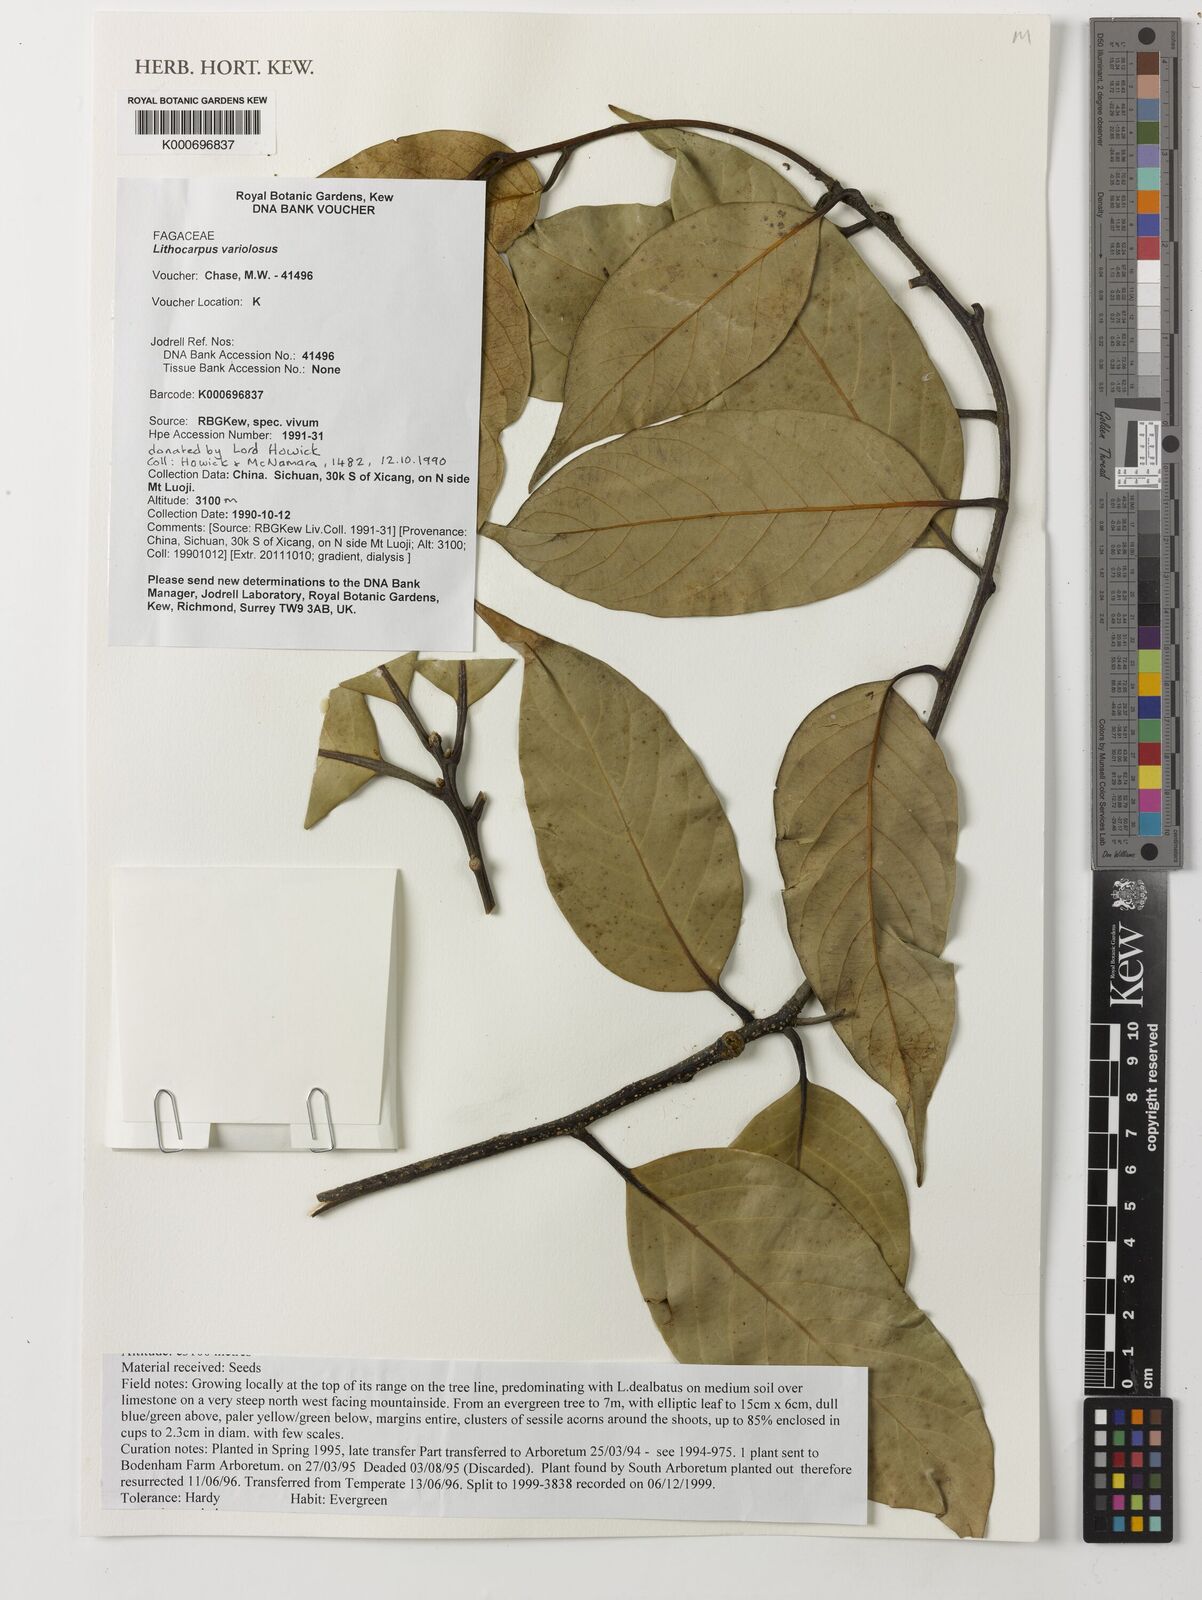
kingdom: Plantae
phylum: Tracheophyta
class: Magnoliopsida
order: Fagales
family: Fagaceae
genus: Lithocarpus
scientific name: Lithocarpus variolosus
